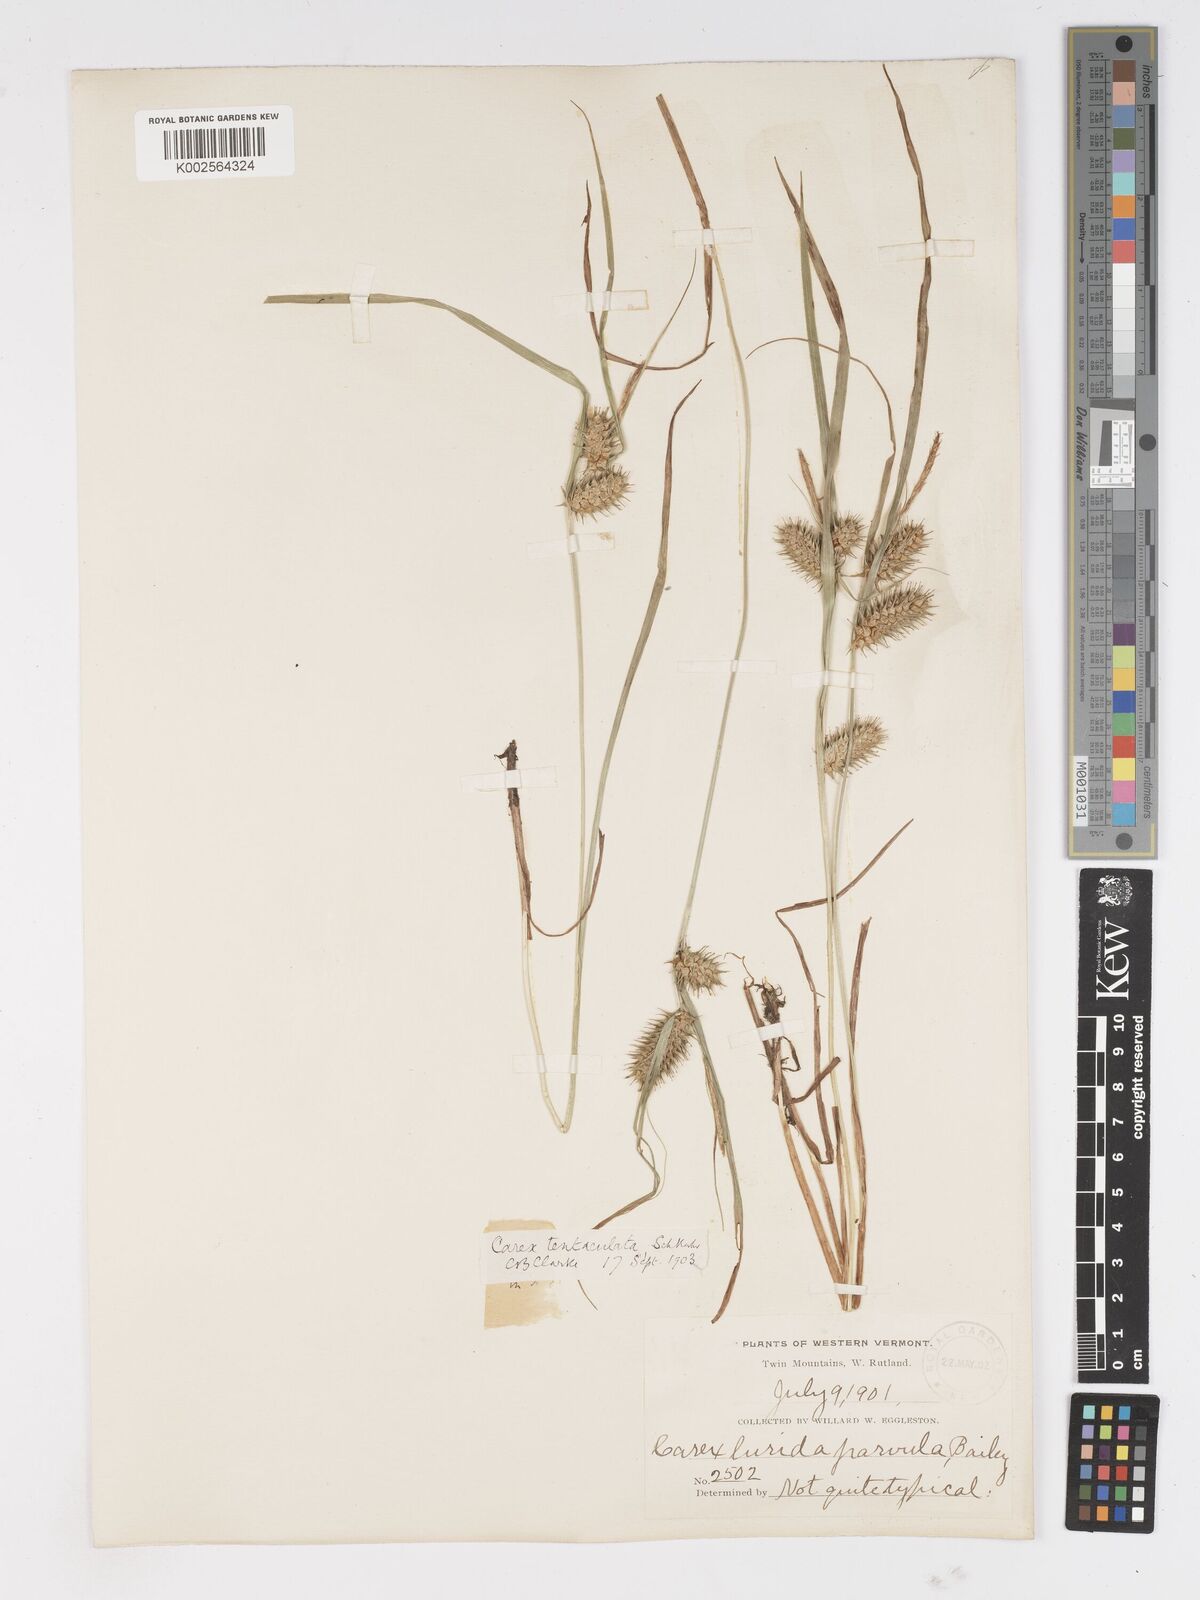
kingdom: Plantae
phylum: Tracheophyta
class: Liliopsida
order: Poales
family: Cyperaceae
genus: Carex
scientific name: Carex lurida
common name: Sallow sedge
